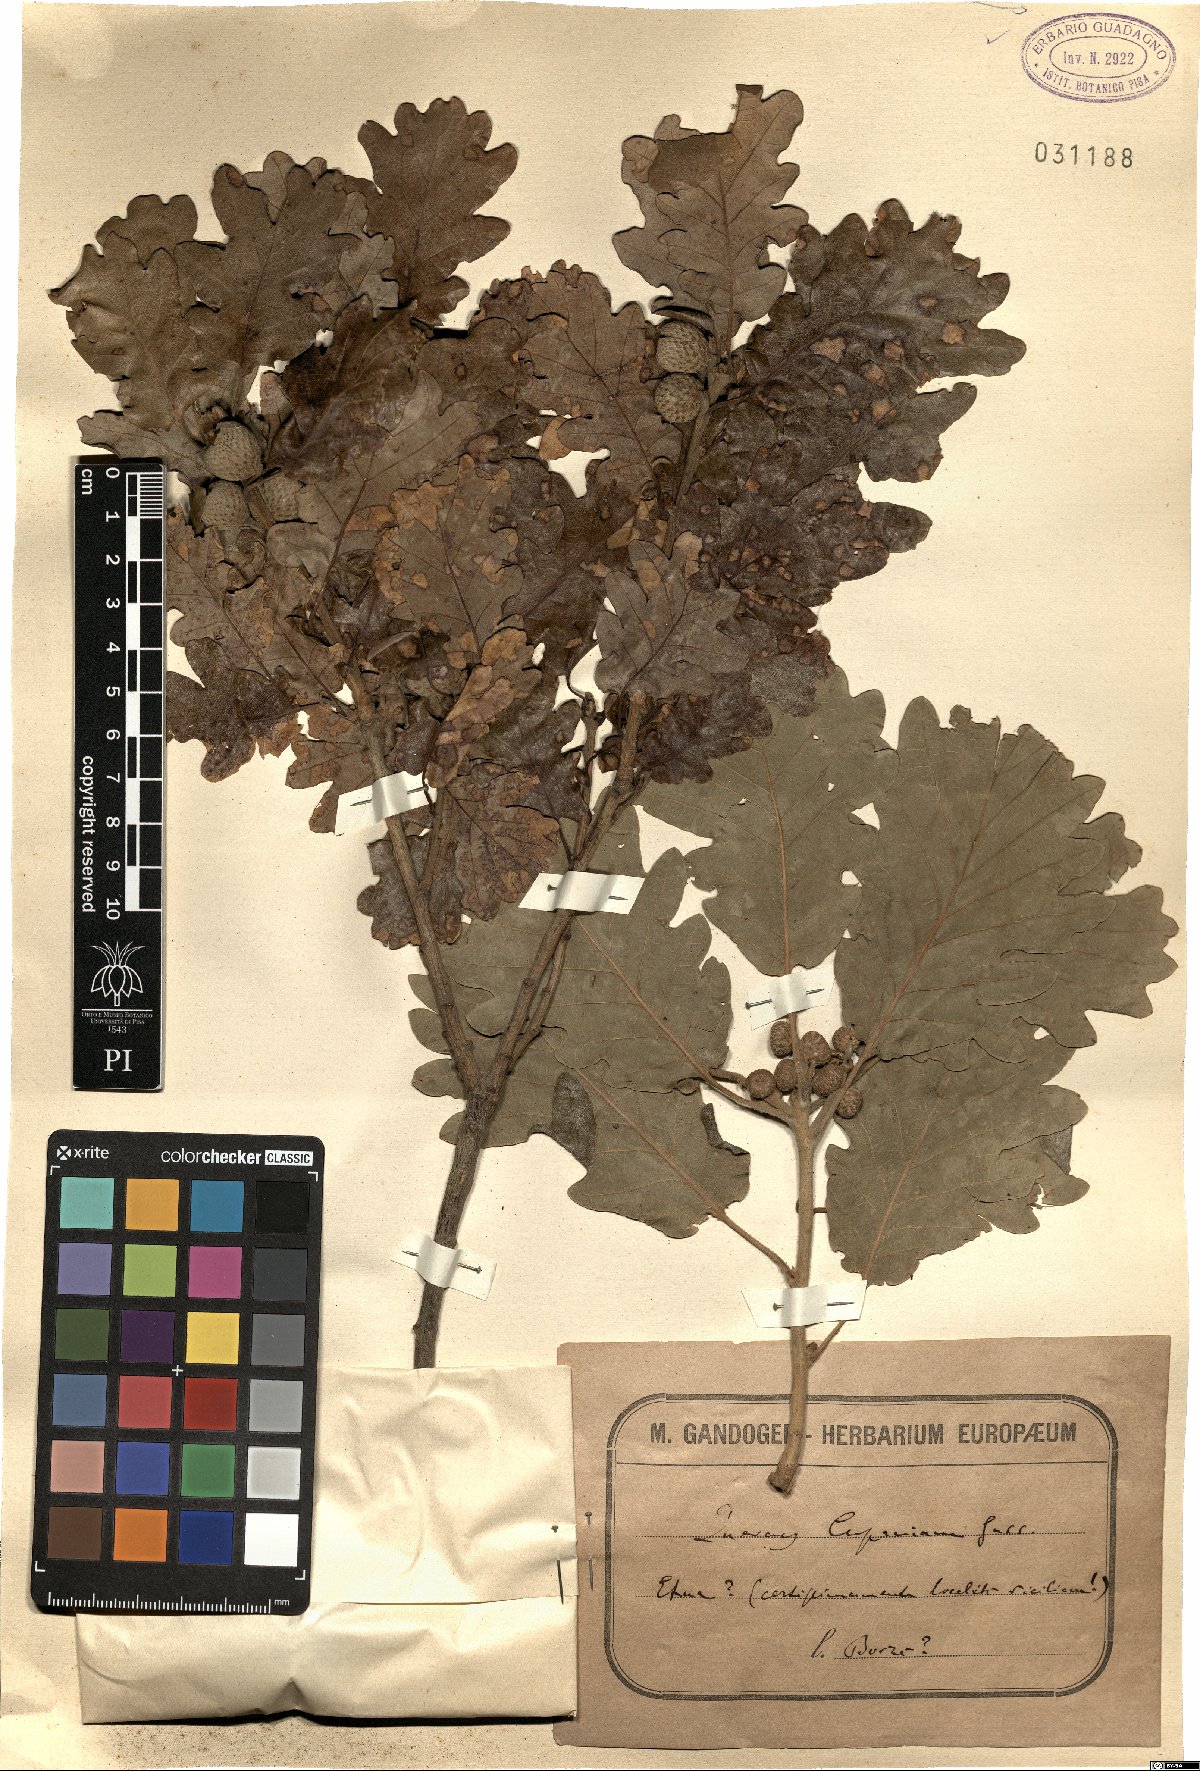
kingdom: Plantae
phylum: Tracheophyta
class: Magnoliopsida
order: Fagales
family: Fagaceae
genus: Quercus
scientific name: Quercus pubescens
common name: Downy oak
